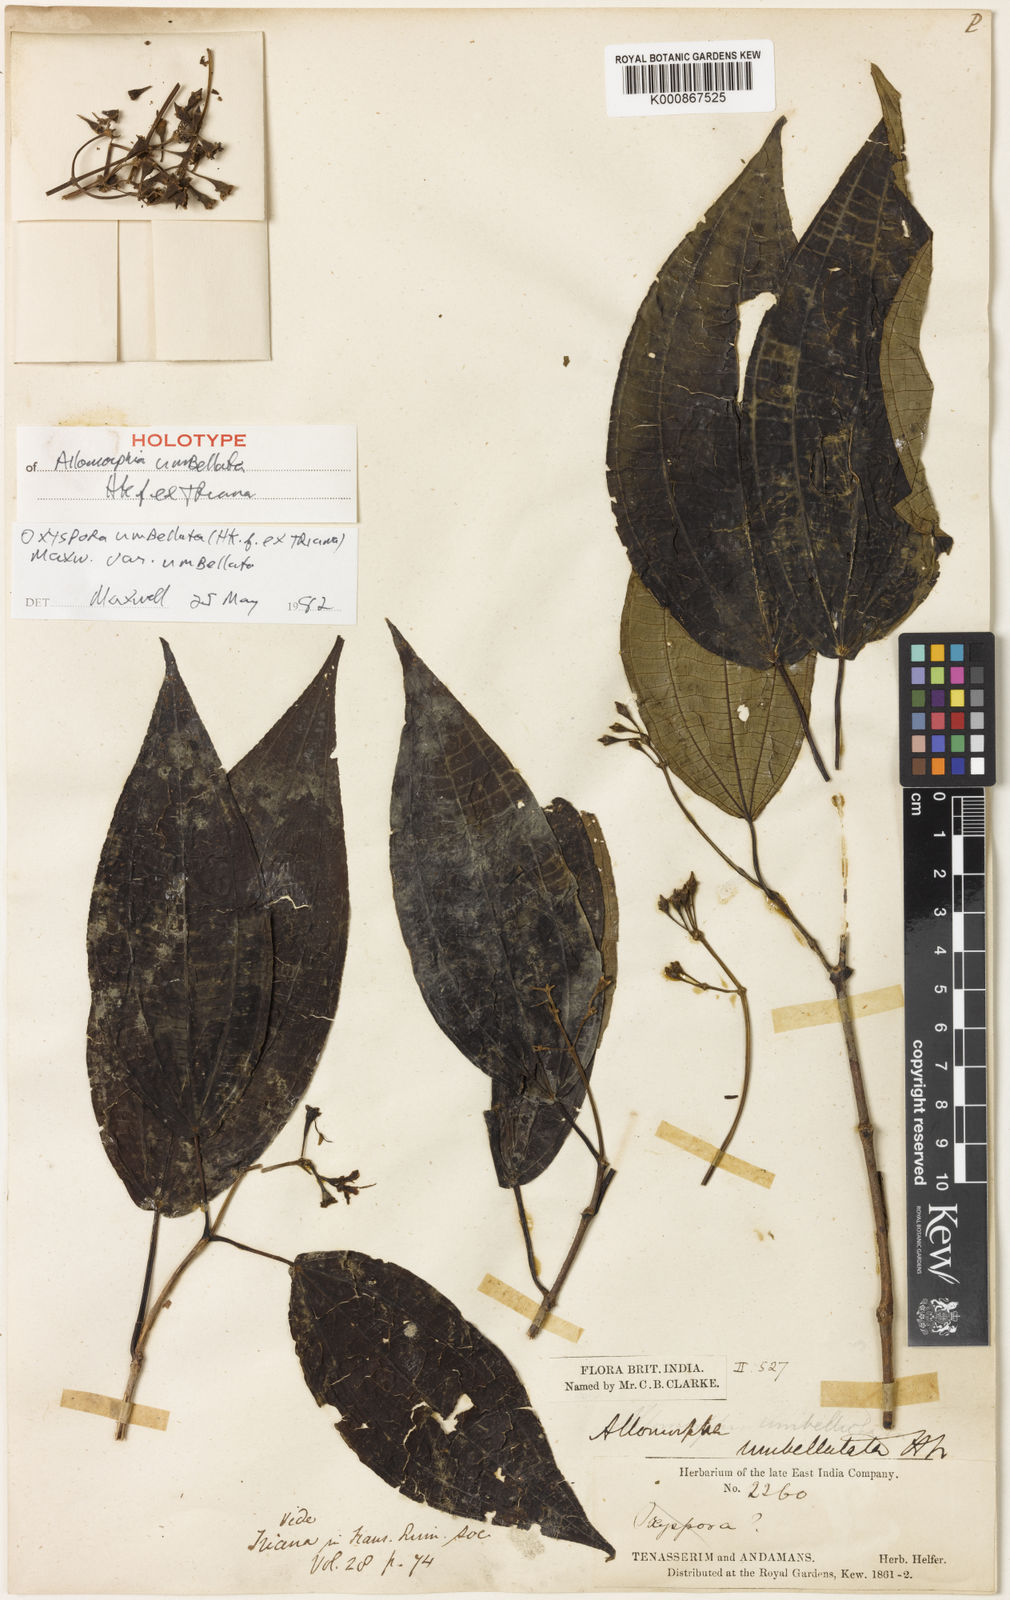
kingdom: Plantae
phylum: Tracheophyta
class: Magnoliopsida
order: Myrtales
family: Melastomataceae
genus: Allomorphia
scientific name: Allomorphia umbellulata
